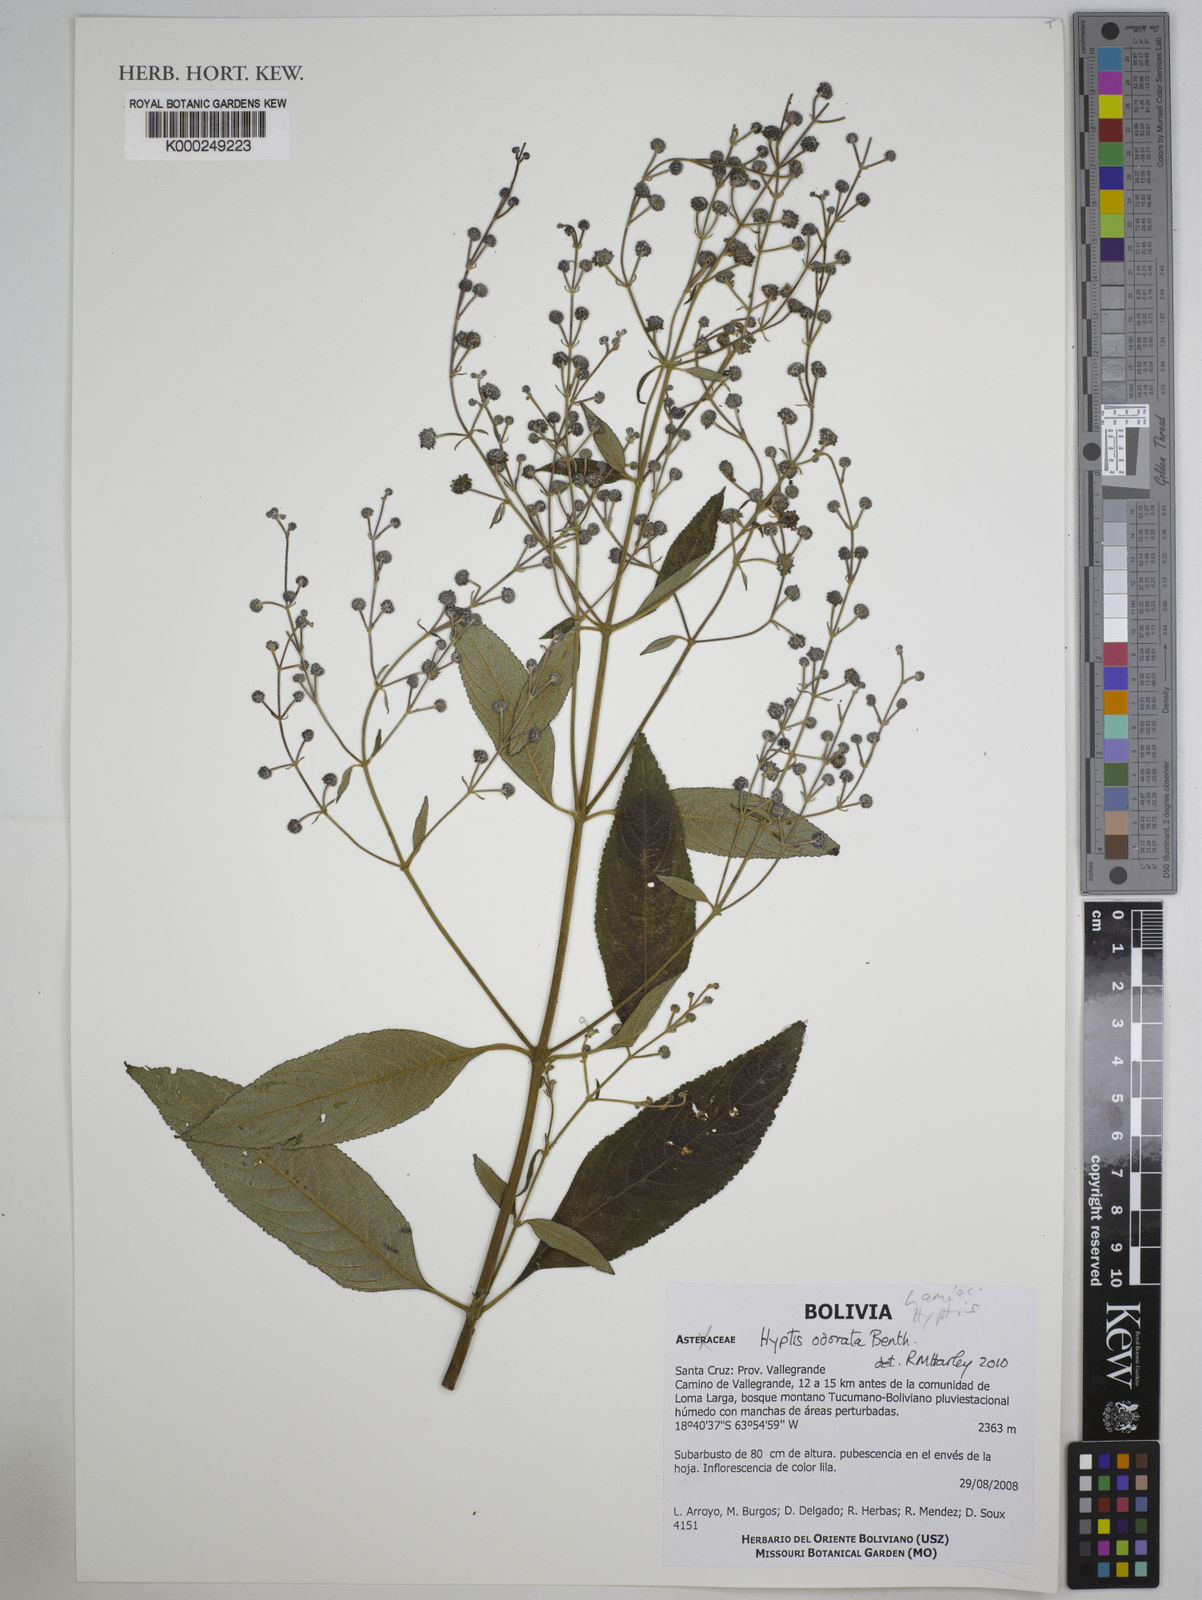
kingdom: Plantae
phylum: Tracheophyta
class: Magnoliopsida
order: Lamiales
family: Lamiaceae
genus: Hyptis
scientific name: Hyptis odorata
